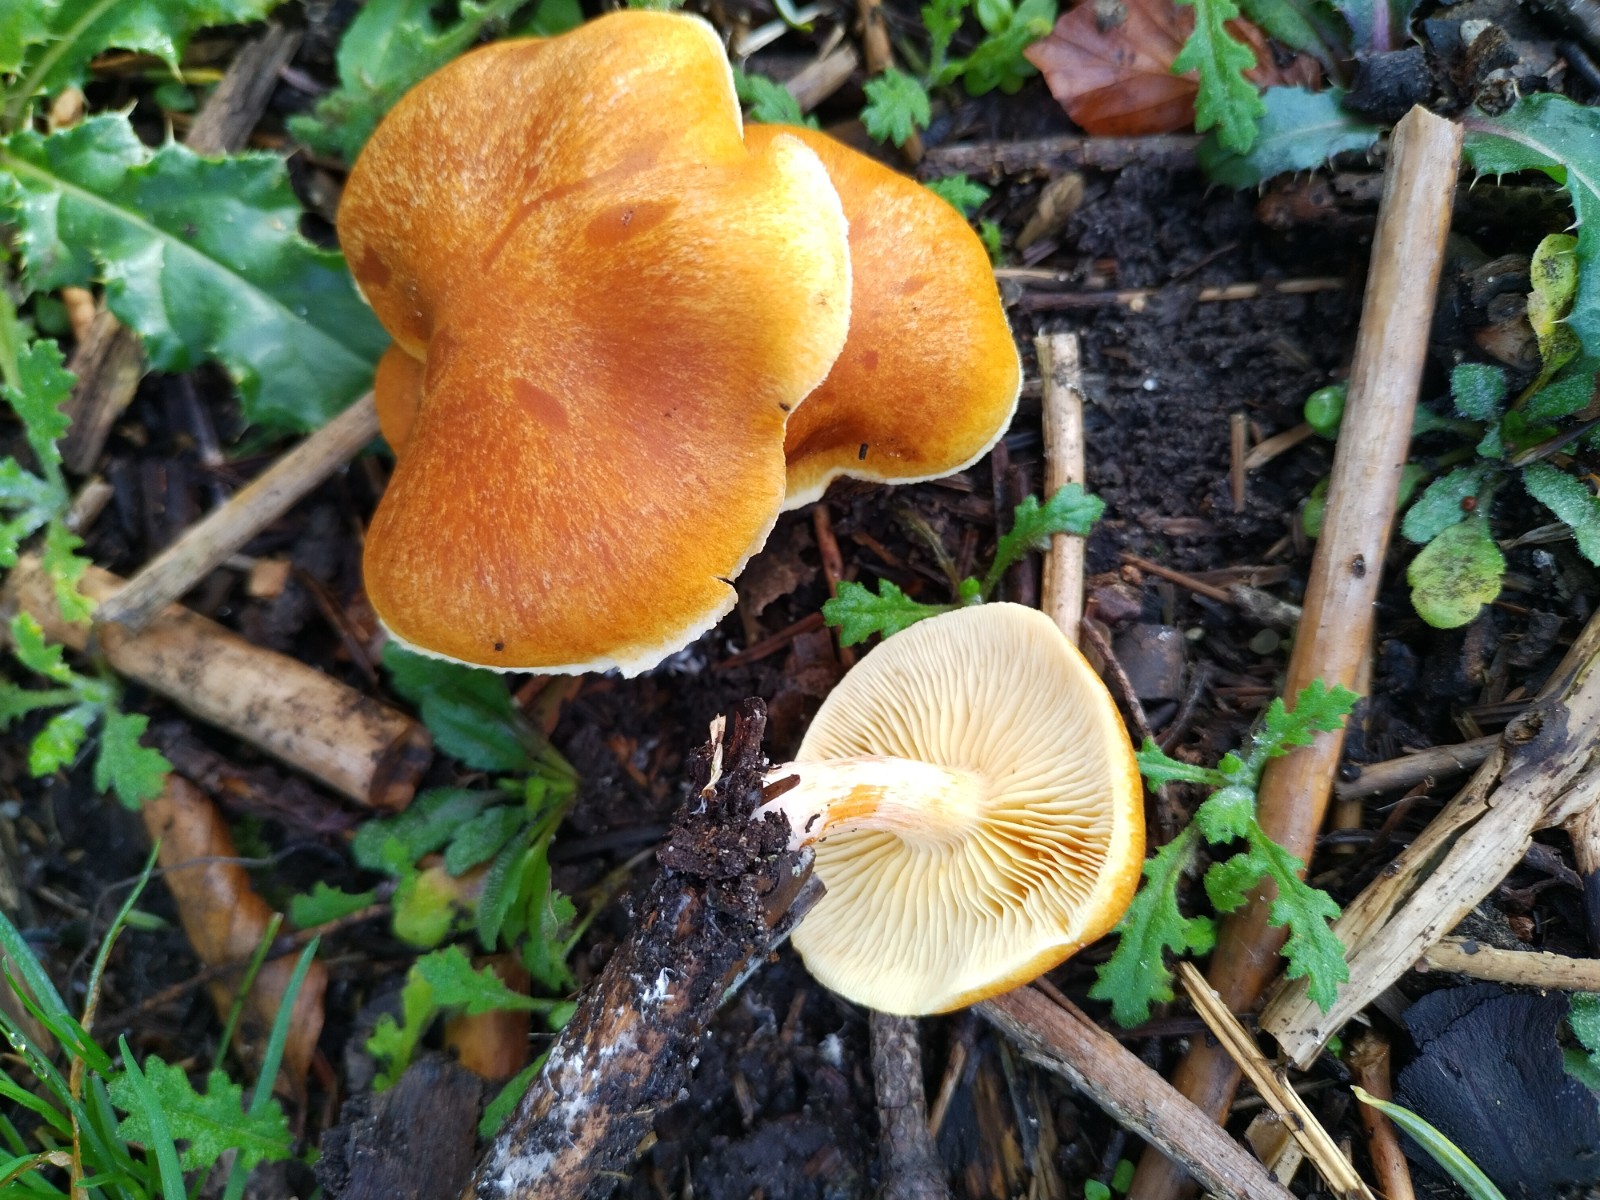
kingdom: Fungi
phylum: Basidiomycota
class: Agaricomycetes
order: Agaricales
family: Hymenogastraceae
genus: Gymnopilus
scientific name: Gymnopilus spectabilis
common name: fibret flammehat
